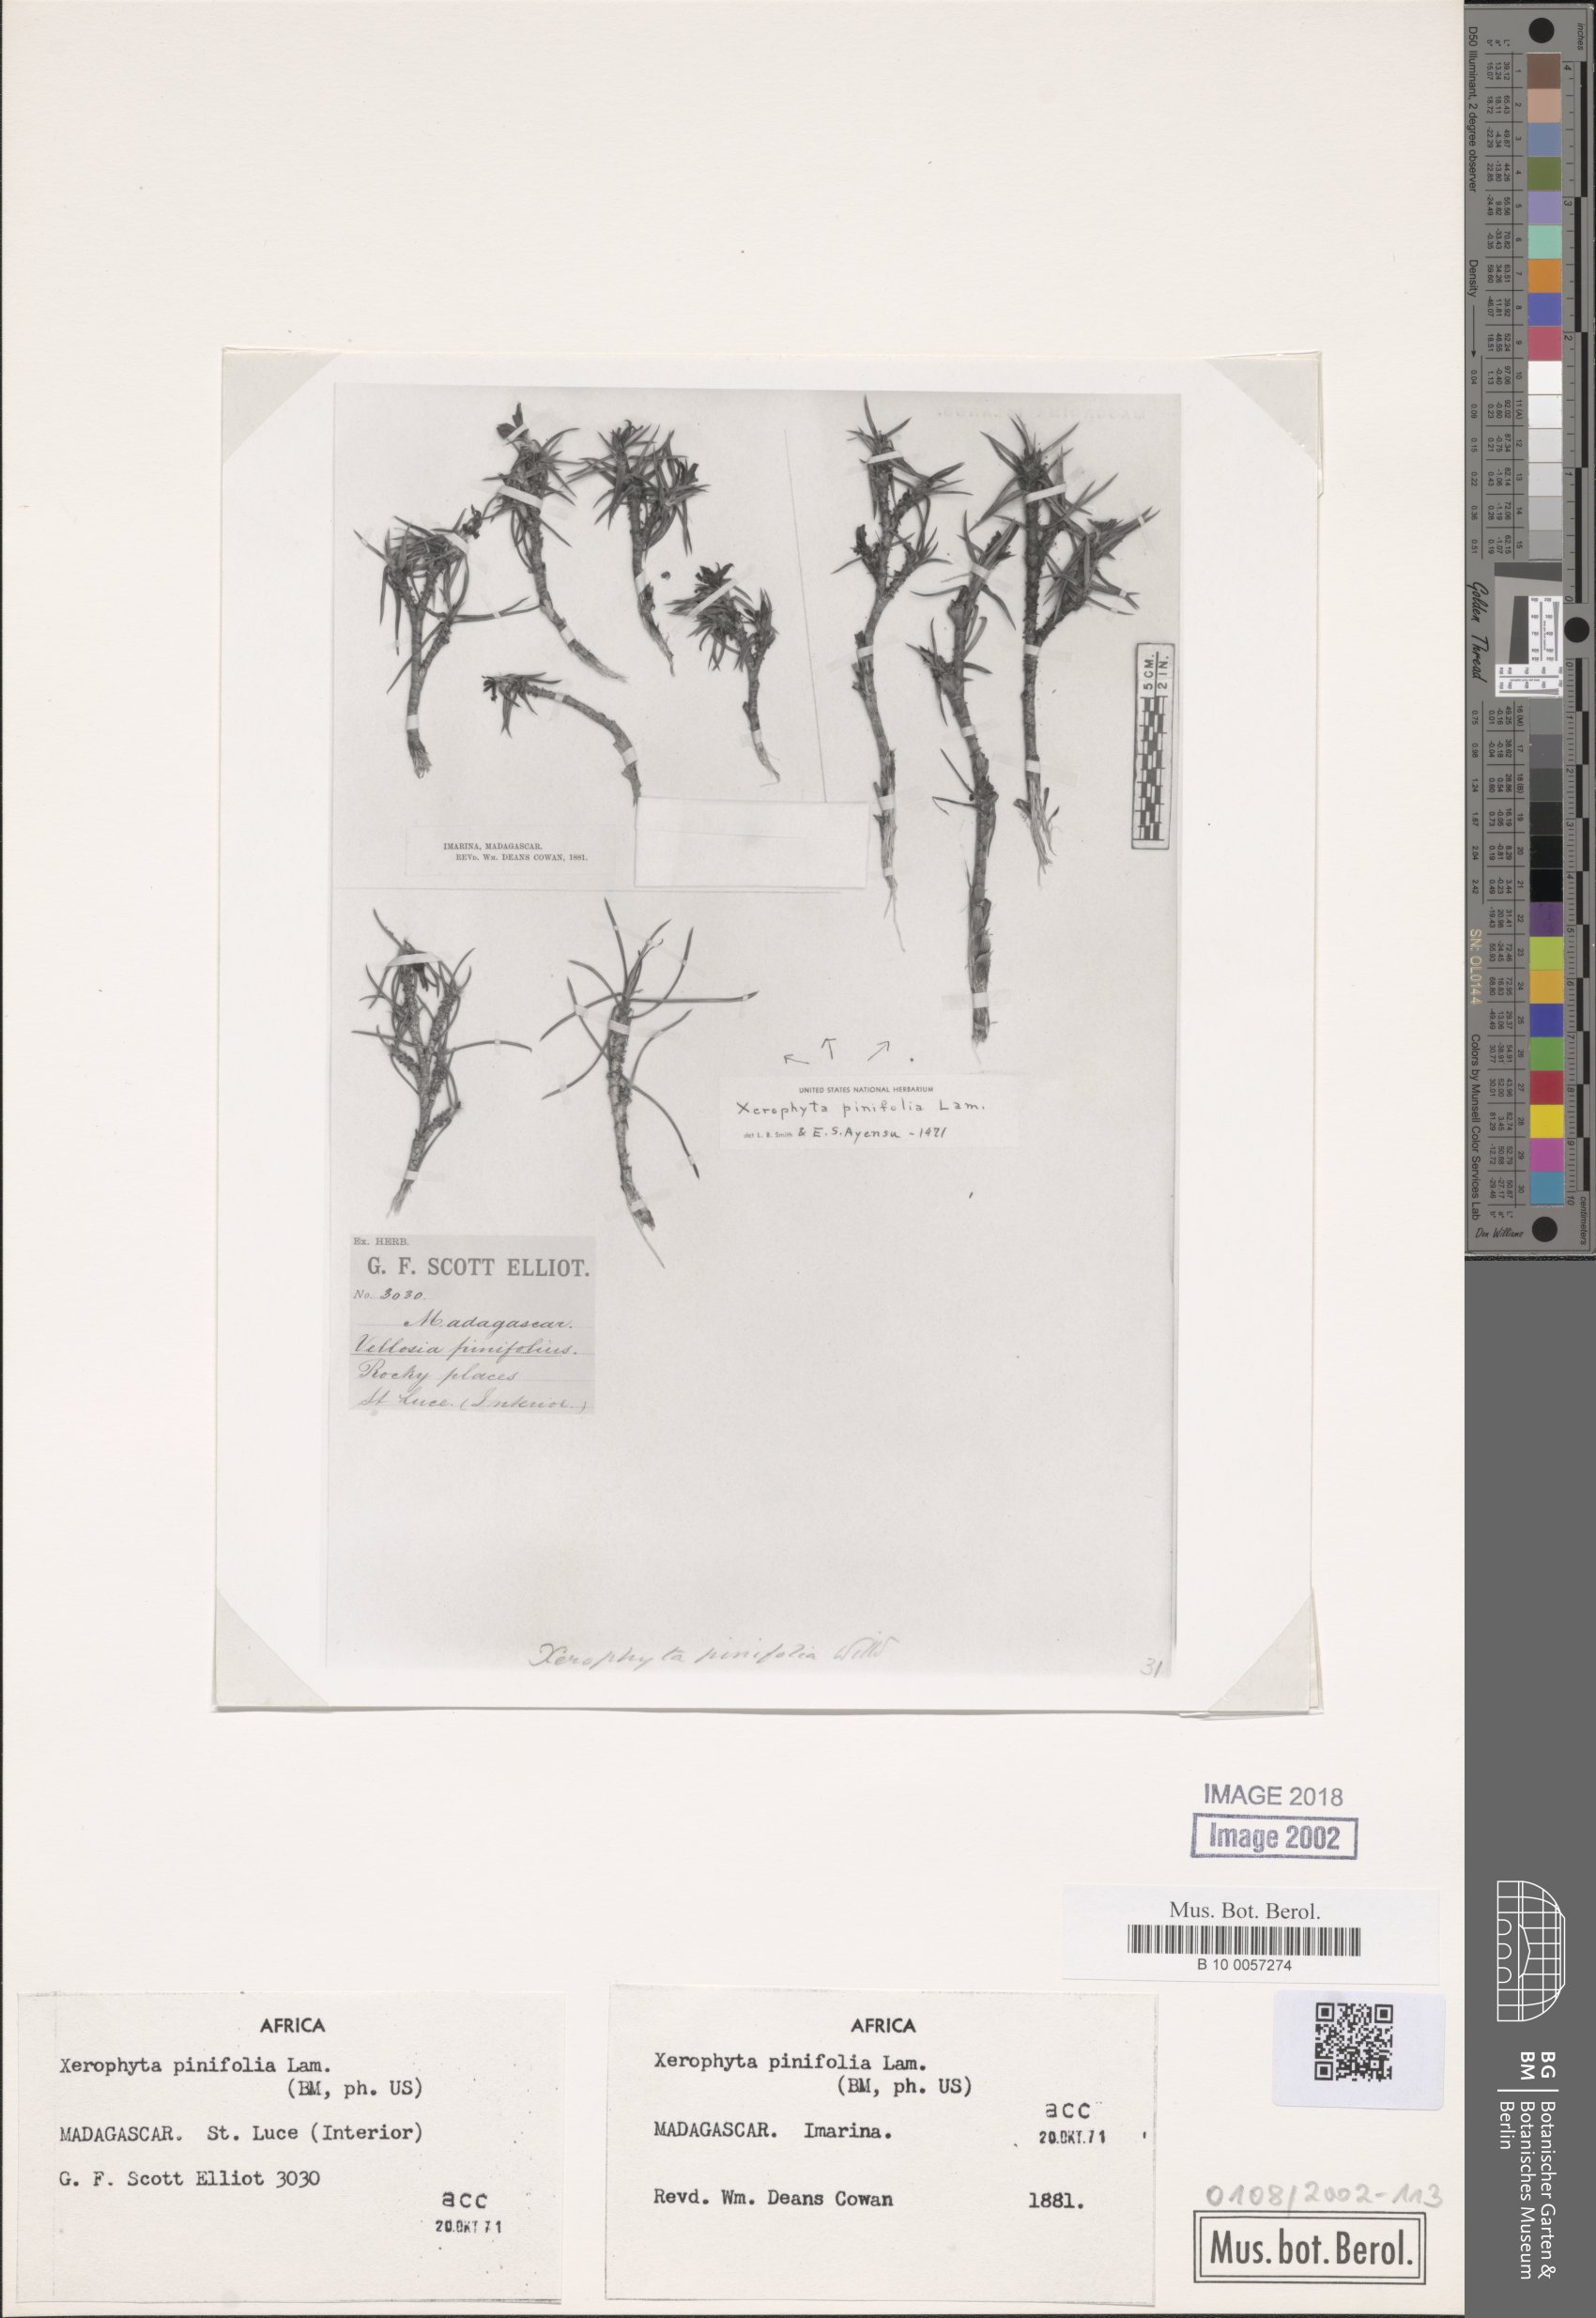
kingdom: Plantae
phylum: Tracheophyta
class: Liliopsida
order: Pandanales
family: Velloziaceae
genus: Xerophyta
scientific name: Xerophyta pinifolia
